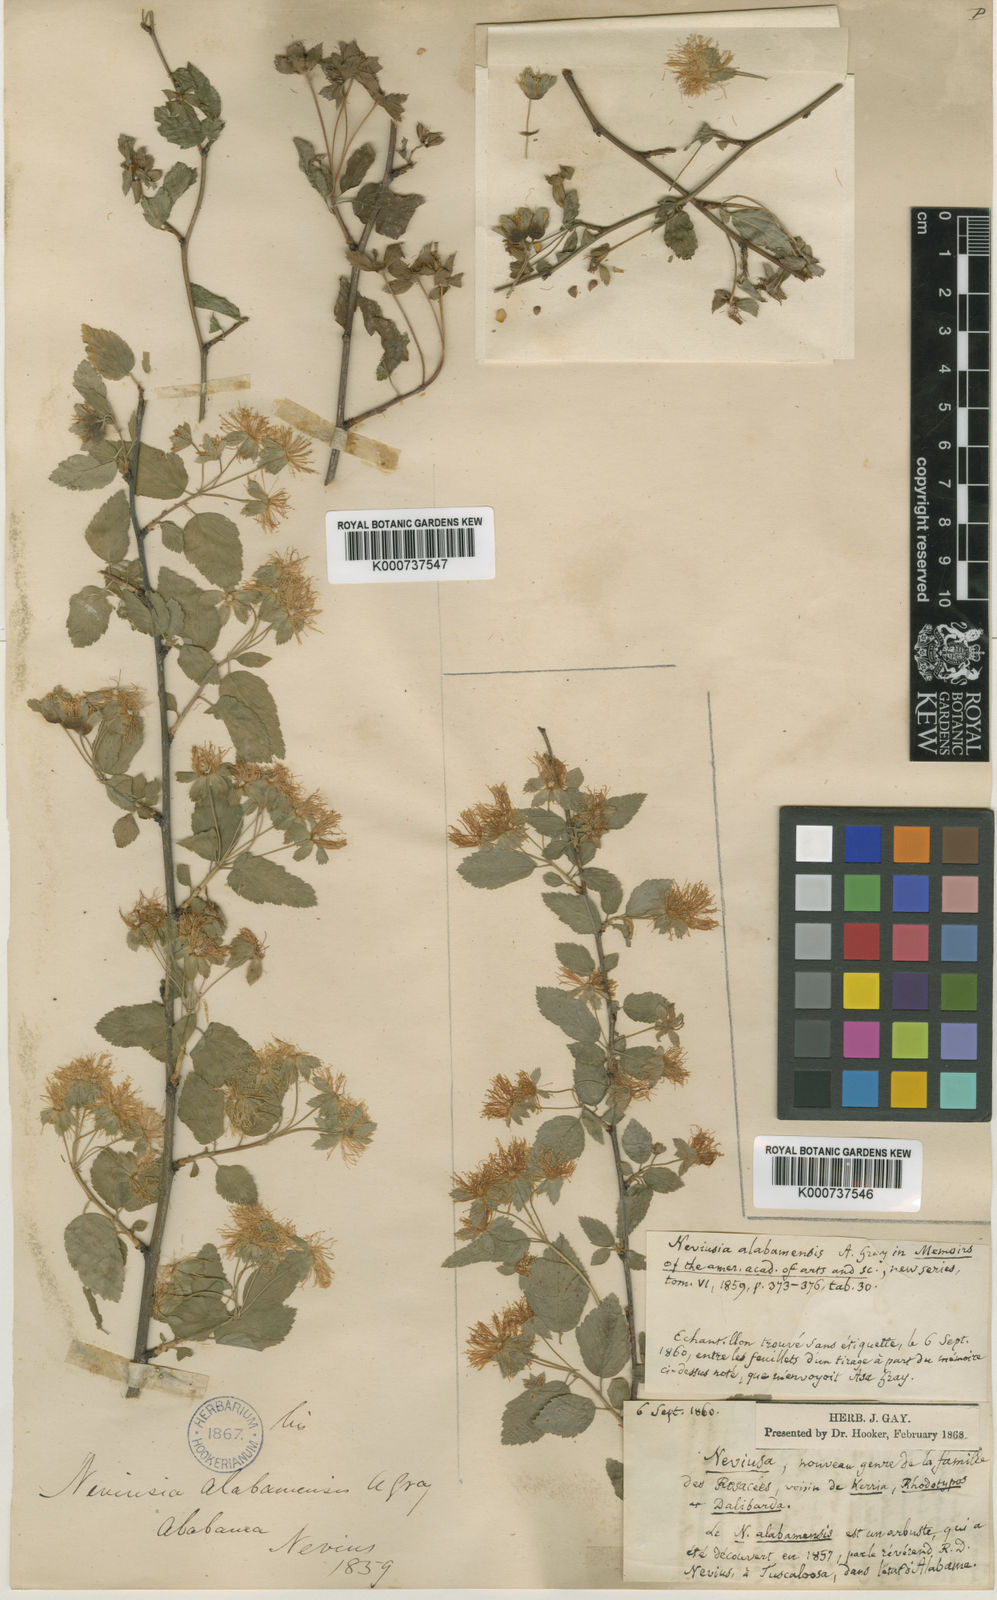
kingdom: Plantae
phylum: Tracheophyta
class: Magnoliopsida
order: Rosales
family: Rosaceae
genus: Neviusia
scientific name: Neviusia alabamensis
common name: Snow-wreath
